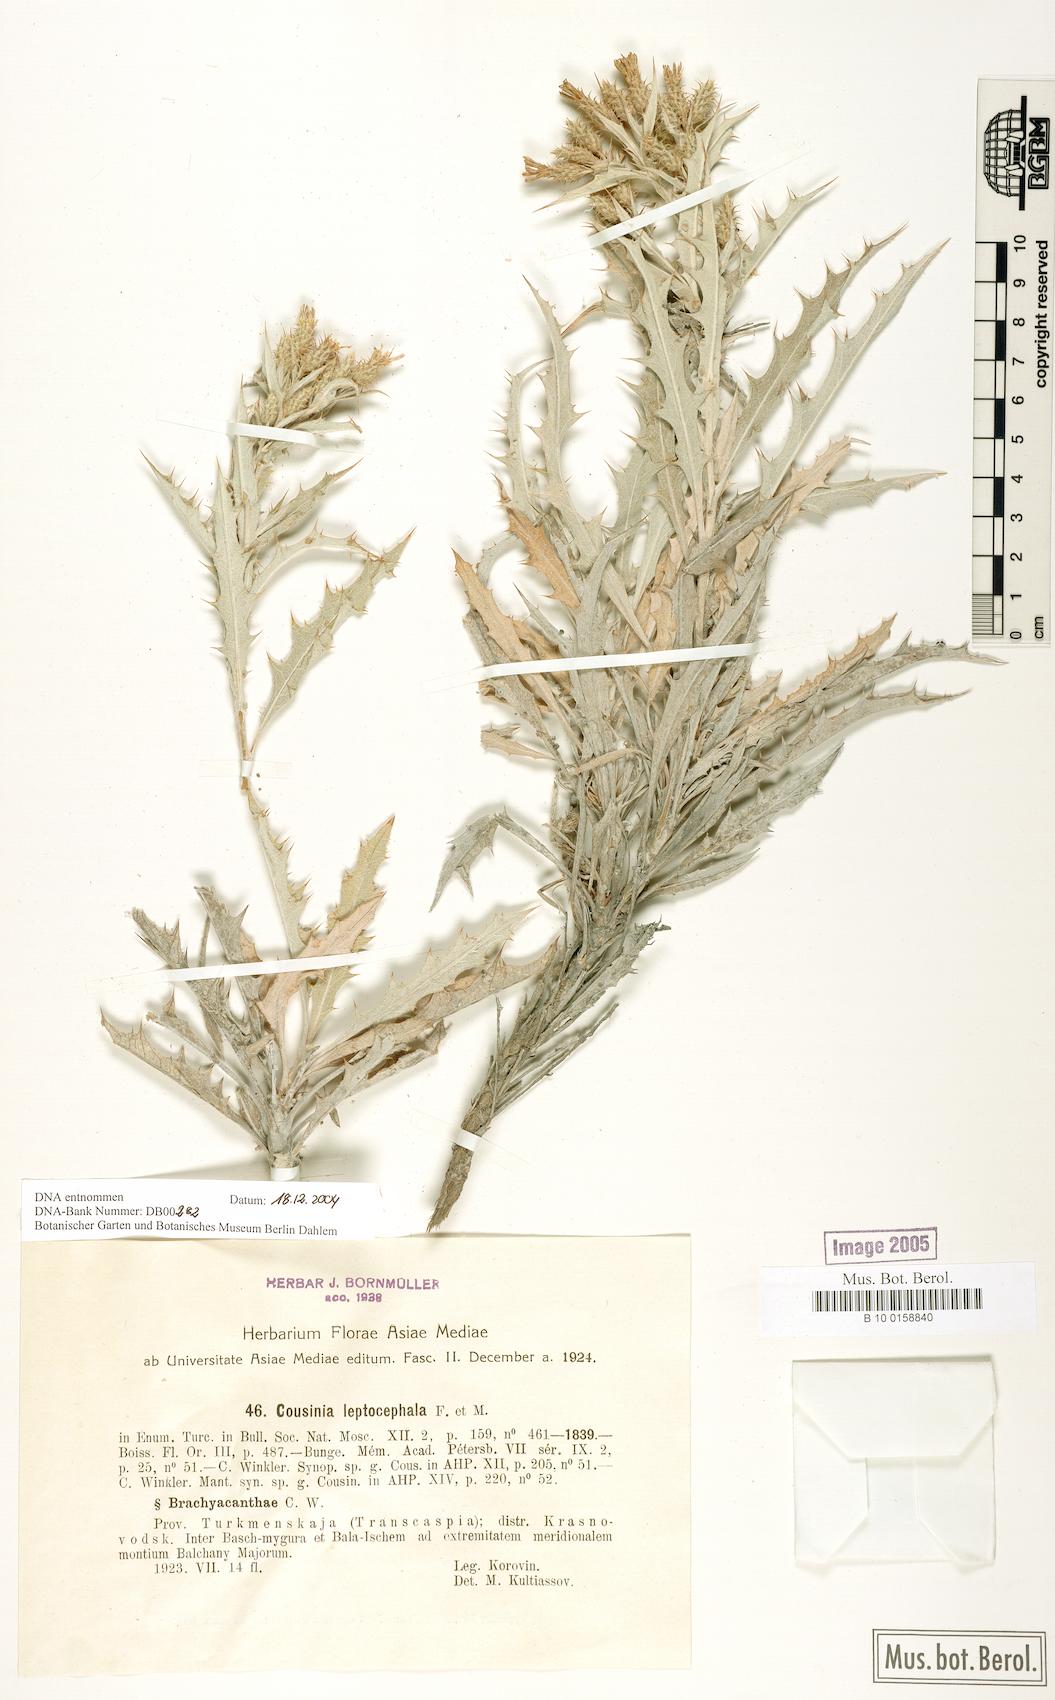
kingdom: Plantae
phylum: Tracheophyta
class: Magnoliopsida
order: Asterales
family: Asteraceae
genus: Cousinia
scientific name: Cousinia leptocephala
